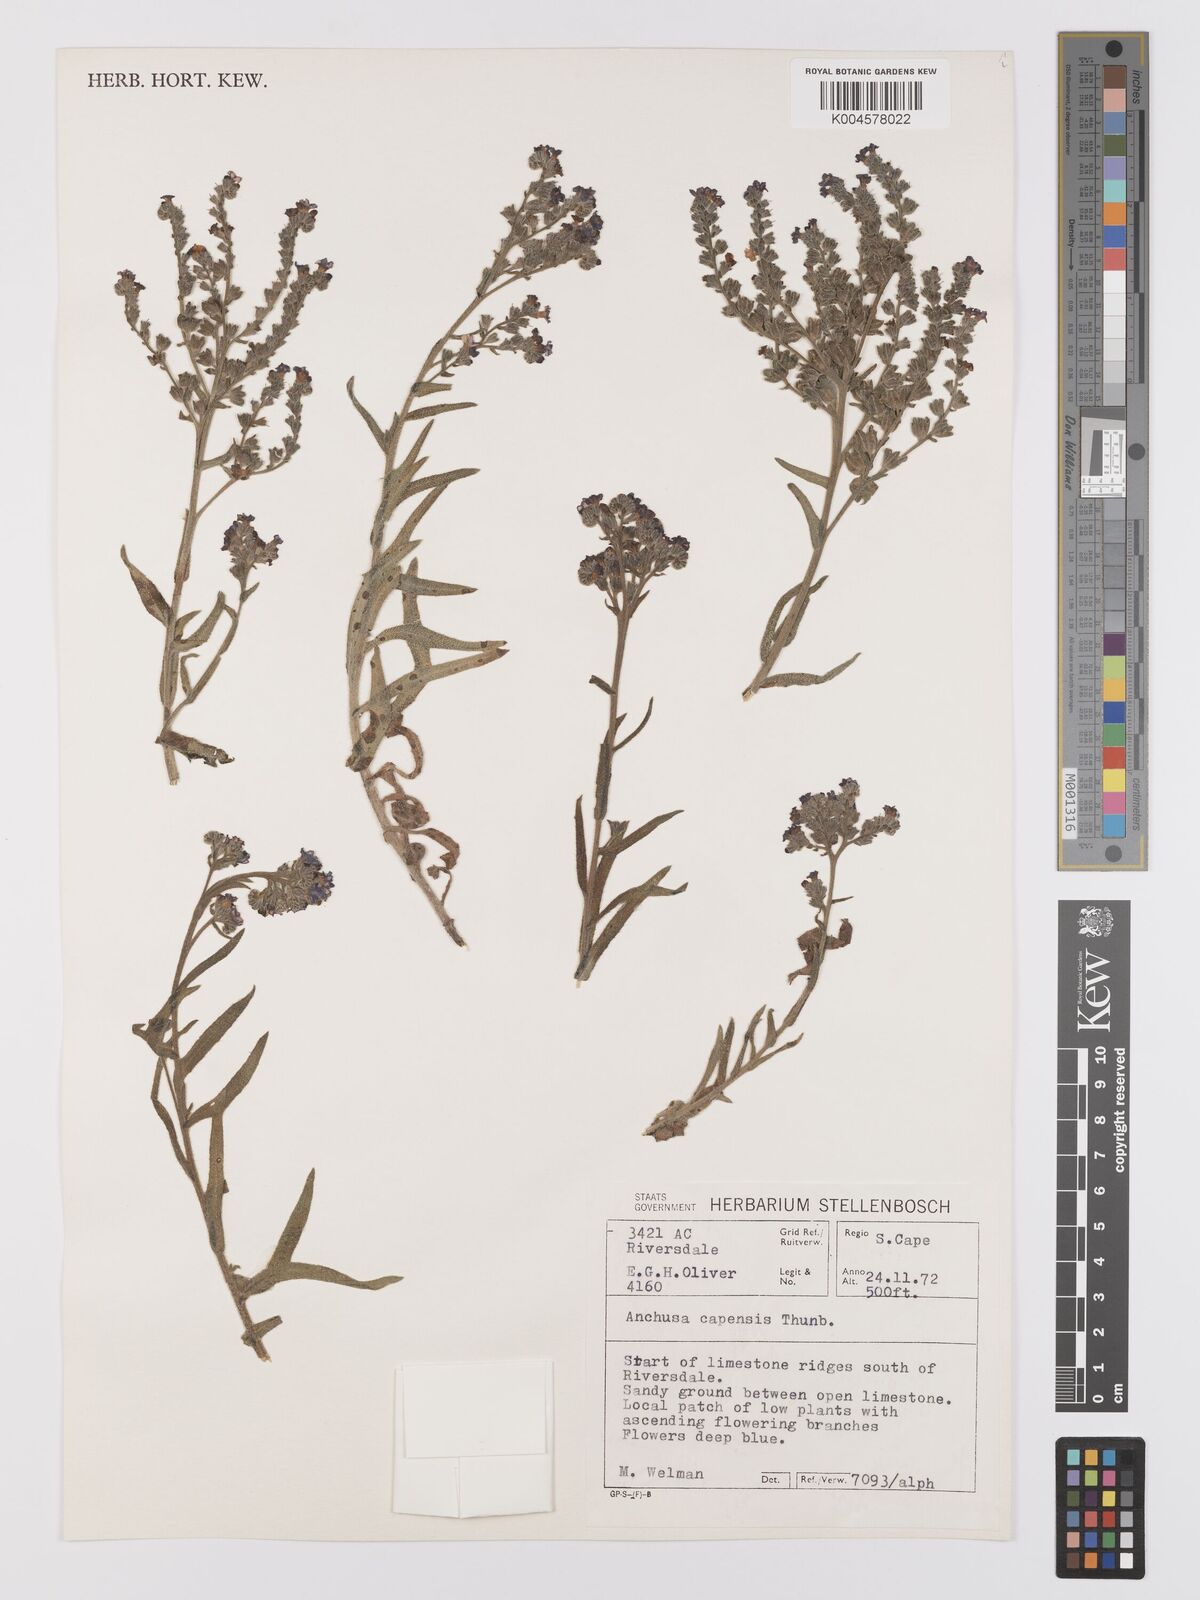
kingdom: Plantae
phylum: Tracheophyta
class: Magnoliopsida
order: Boraginales
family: Boraginaceae
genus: Anchusa
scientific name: Anchusa capensis
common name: Cape bugloss
